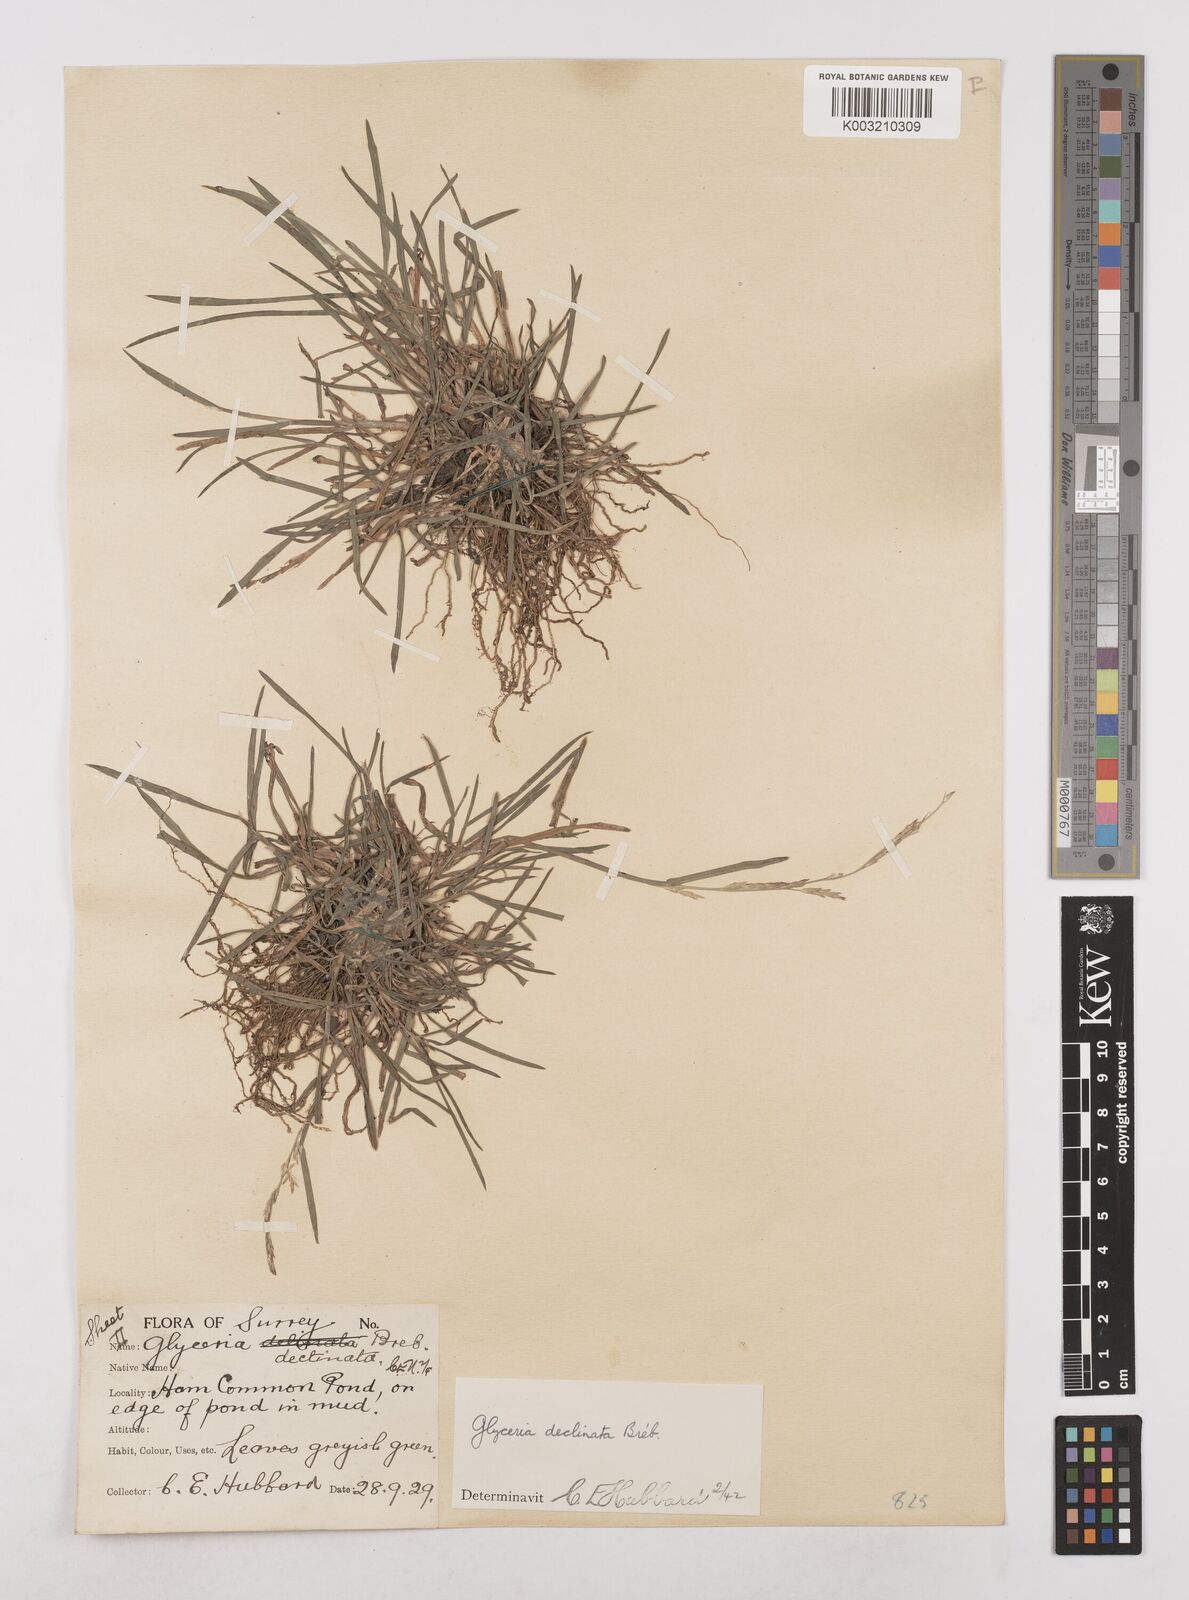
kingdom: Plantae
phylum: Tracheophyta
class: Liliopsida
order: Poales
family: Poaceae
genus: Glyceria
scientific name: Glyceria declinata
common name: Small sweet-grass
